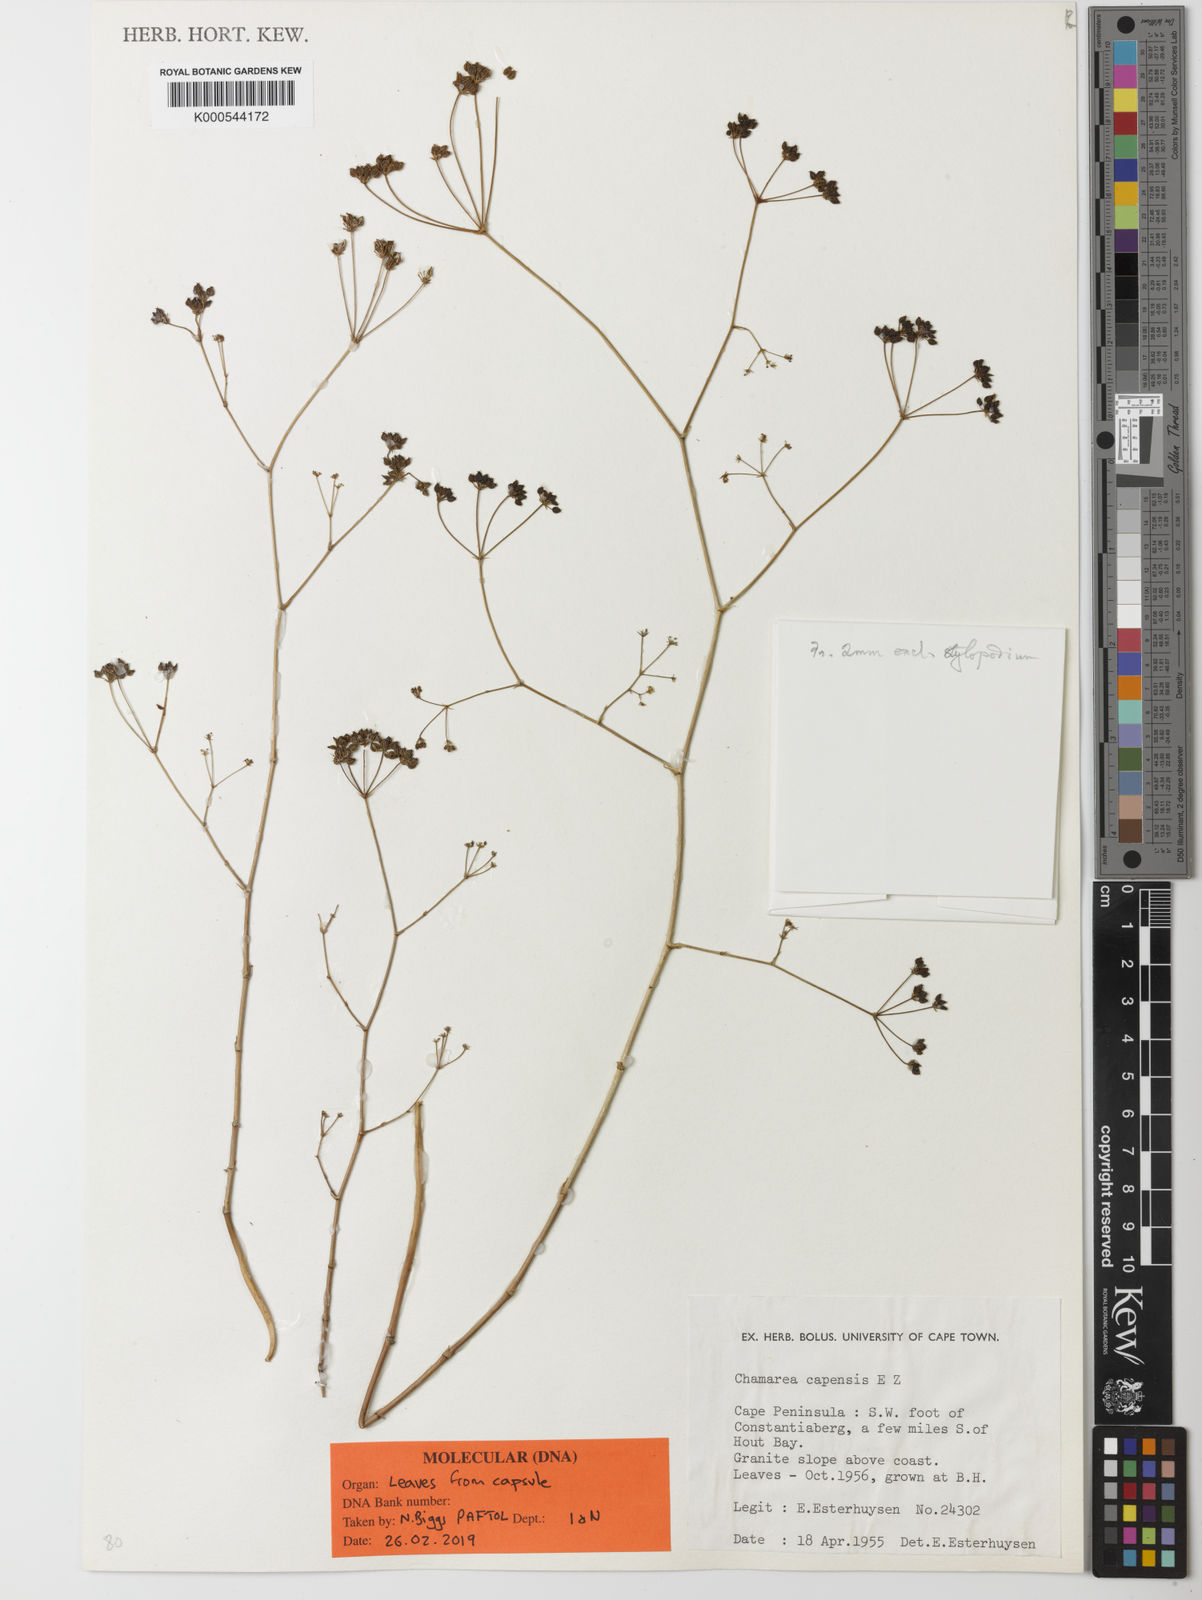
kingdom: Plantae
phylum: Tracheophyta
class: Magnoliopsida
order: Apiales
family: Apiaceae
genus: Chamarea
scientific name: Chamarea capensis
